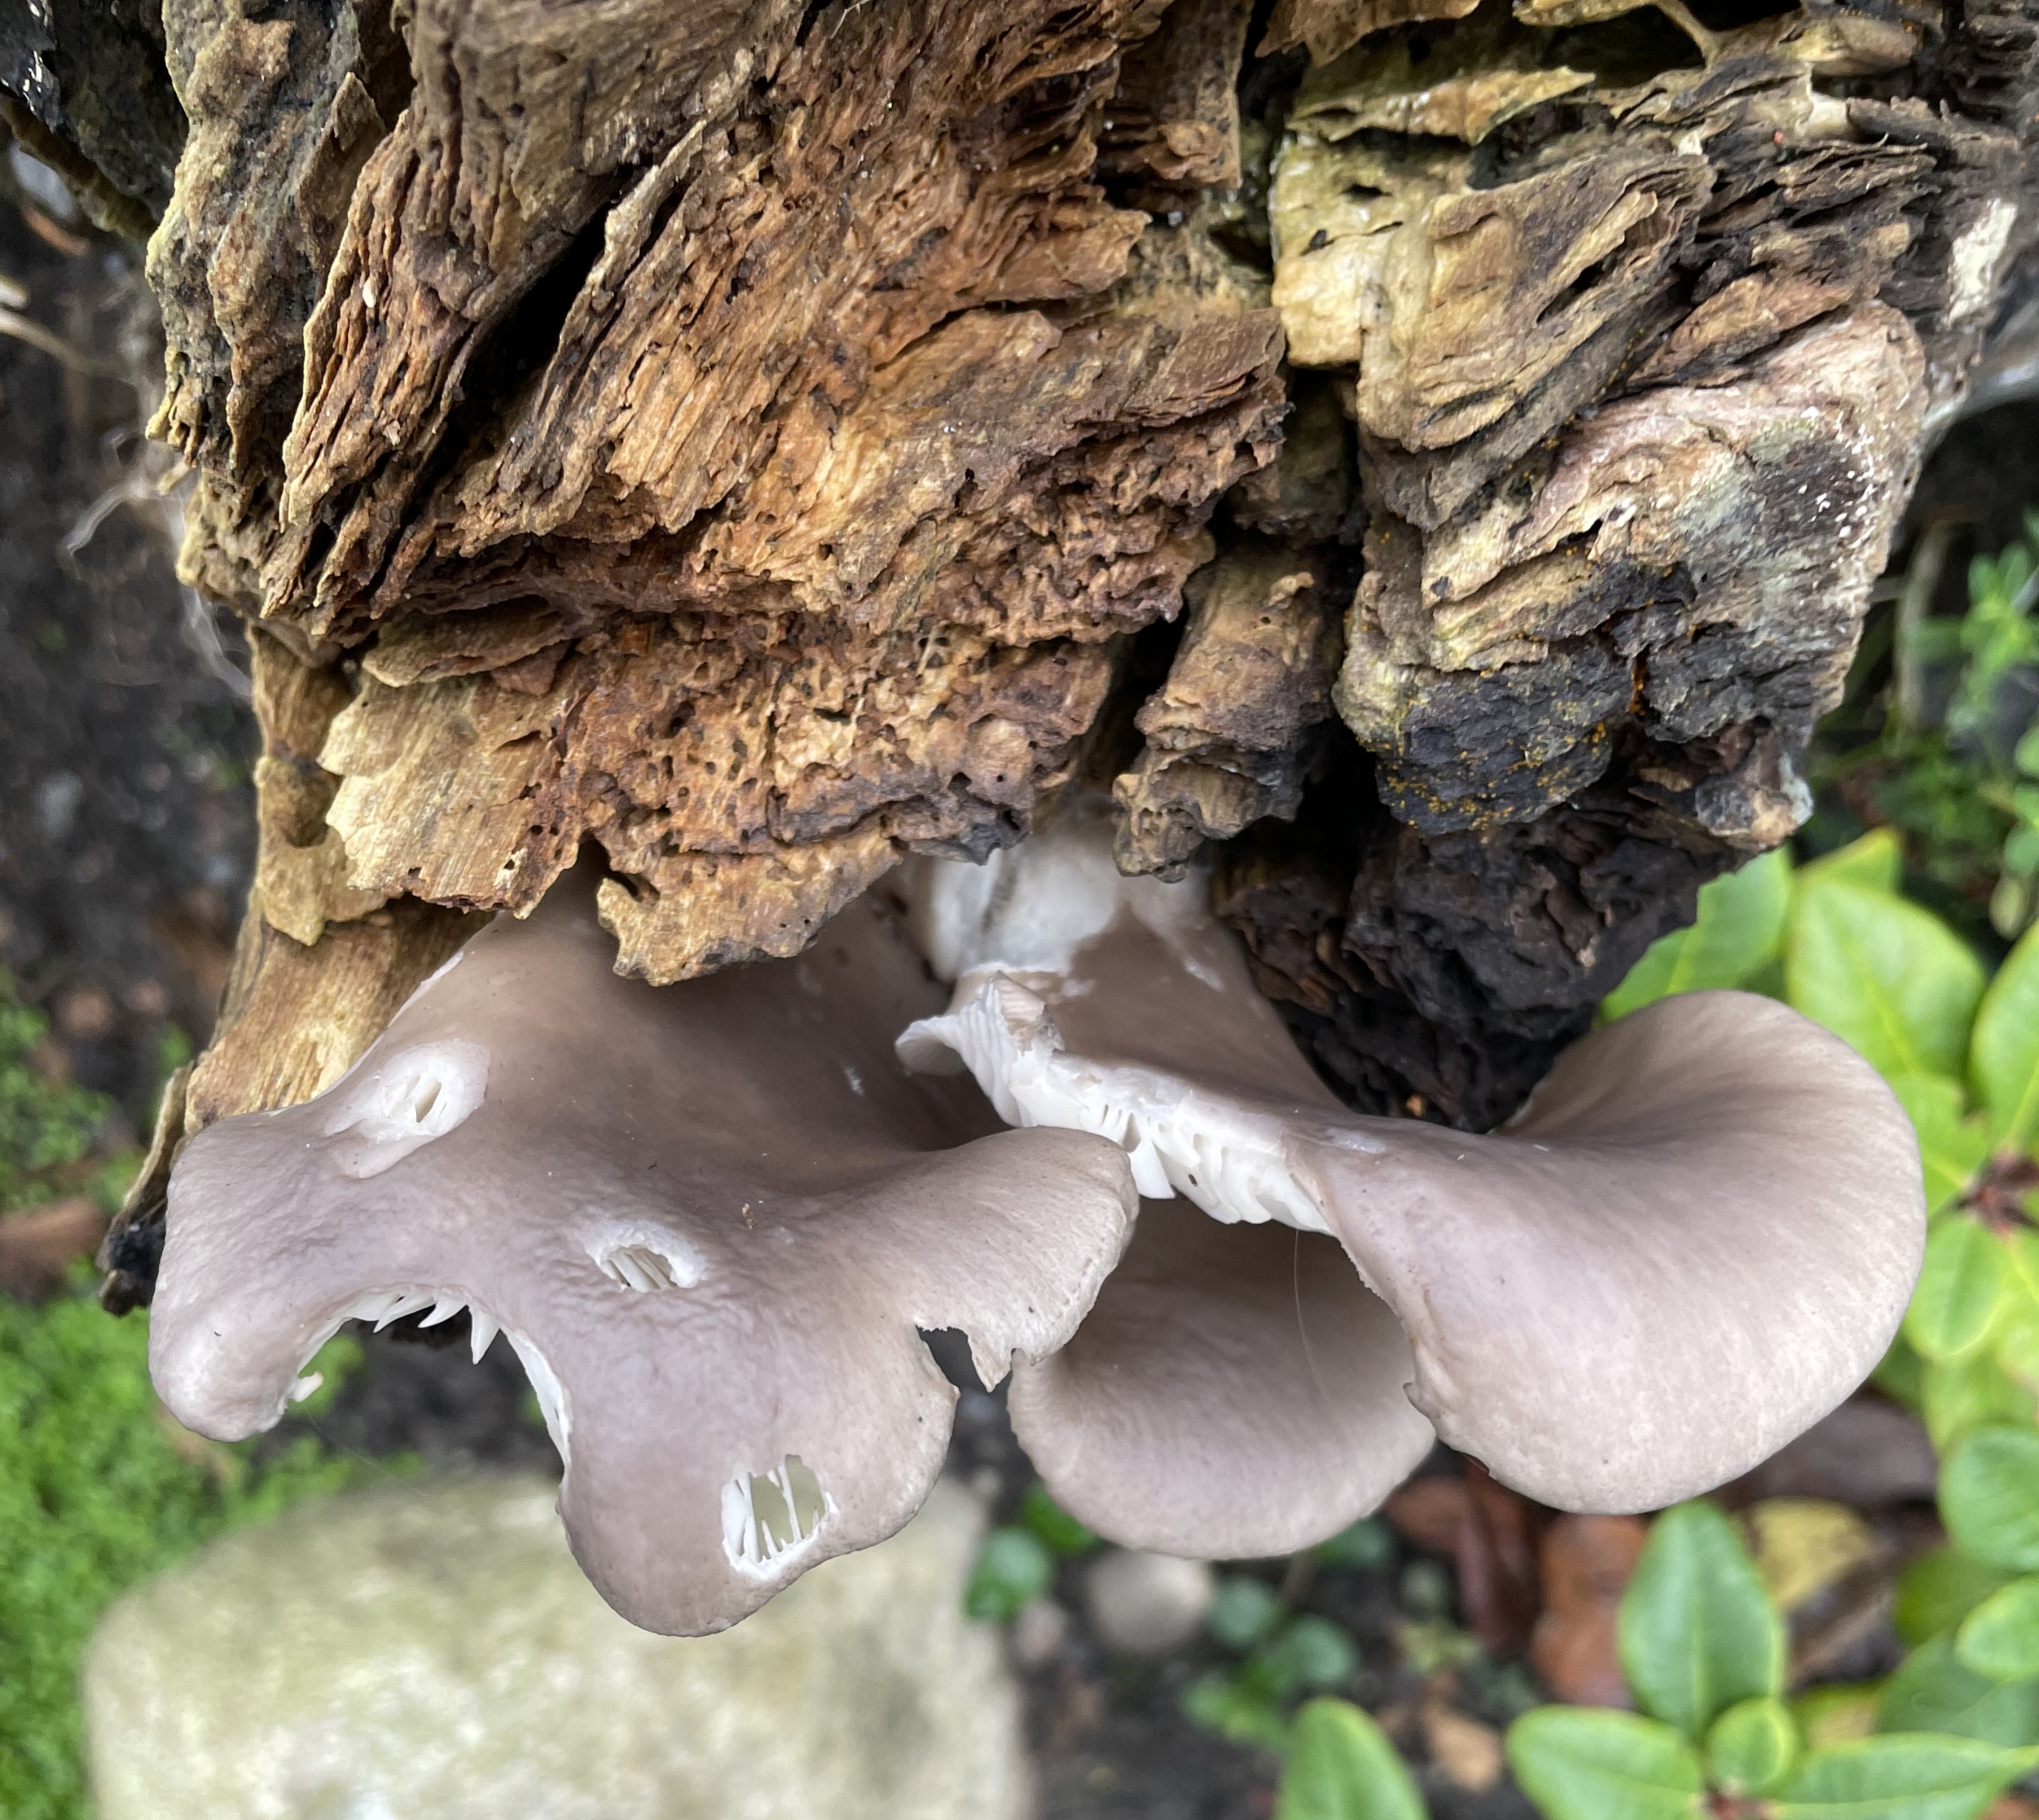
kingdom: Fungi
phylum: Basidiomycota
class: Agaricomycetes
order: Agaricales
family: Pleurotaceae
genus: Pleurotus
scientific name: Pleurotus ostreatus
